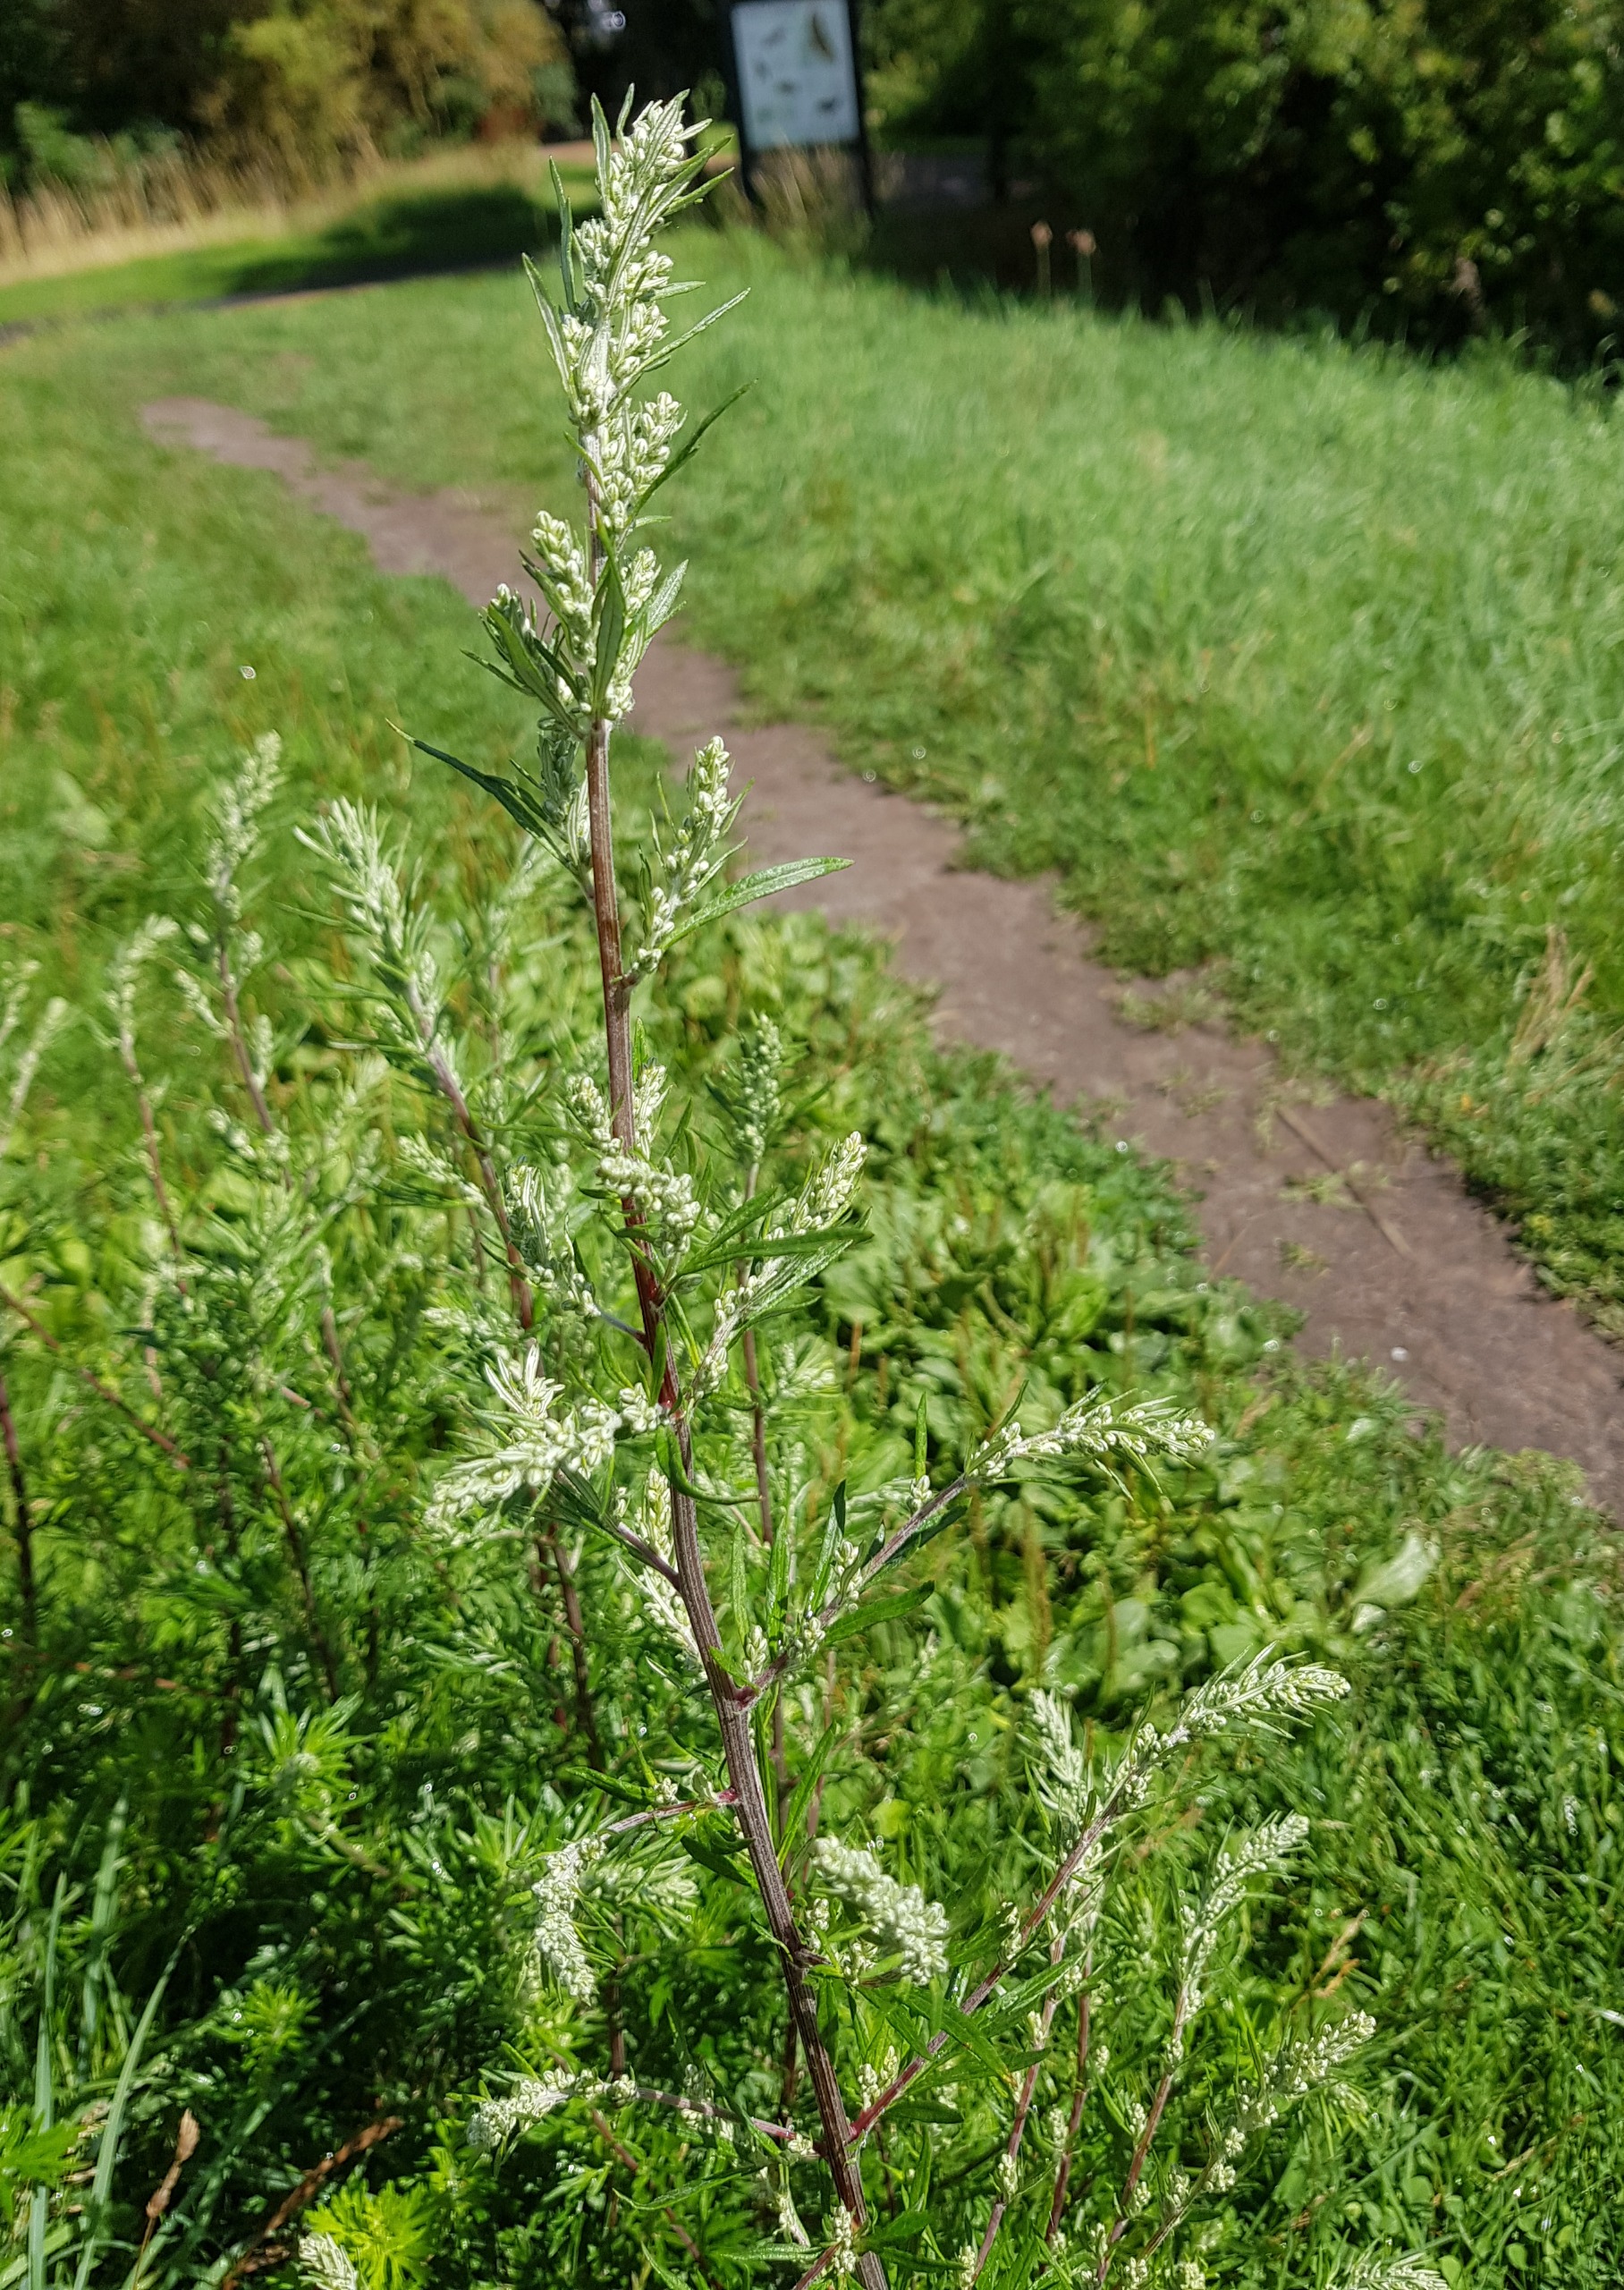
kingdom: Plantae
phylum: Tracheophyta
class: Magnoliopsida
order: Asterales
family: Asteraceae
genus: Artemisia
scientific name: Artemisia vulgaris
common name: Grå-bynke
